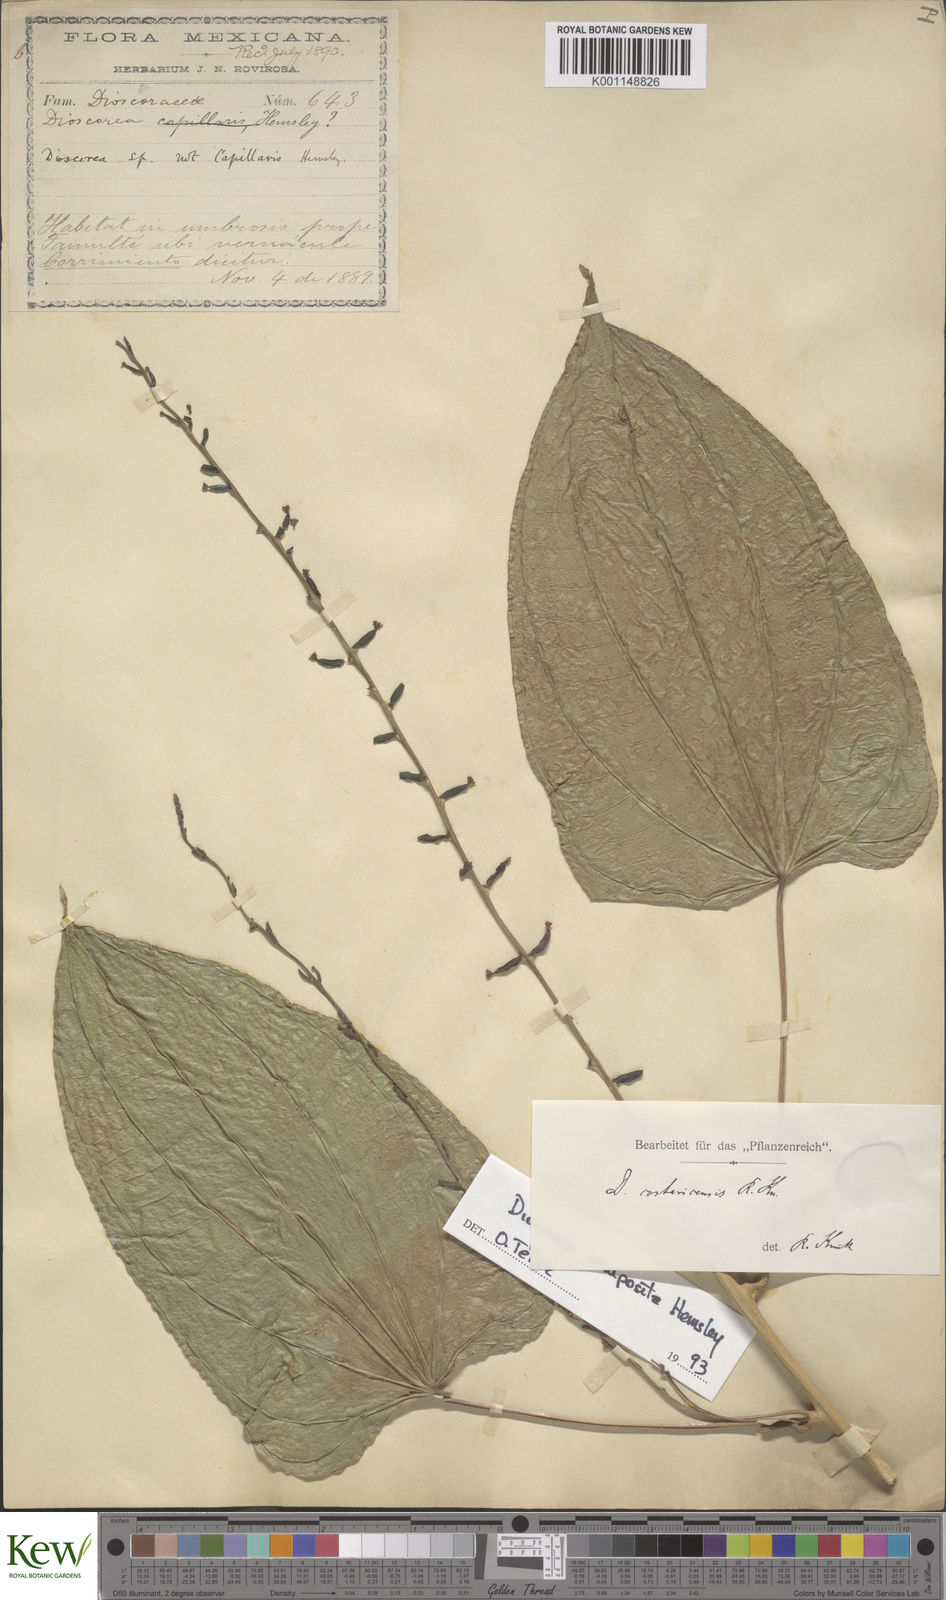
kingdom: Plantae
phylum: Tracheophyta
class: Liliopsida
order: Dioscoreales
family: Dioscoreaceae
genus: Dioscorea
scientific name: Dioscorea pilosiuscula
